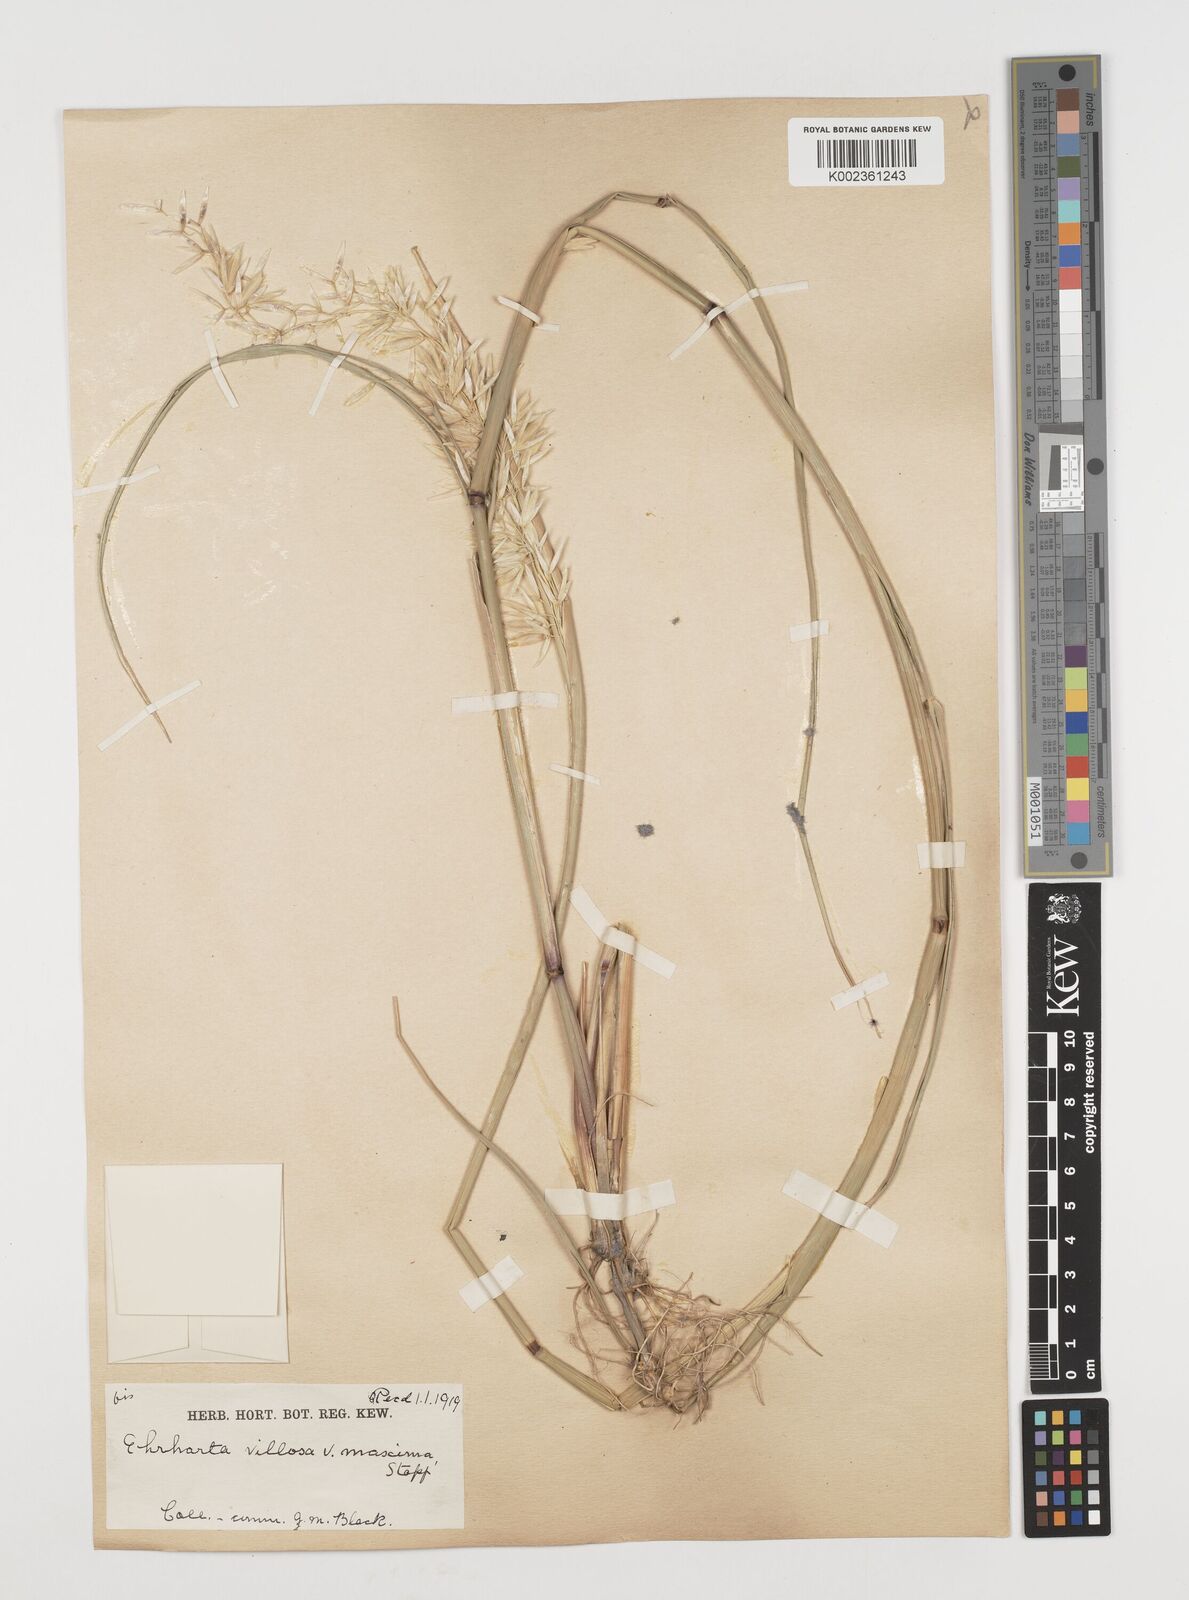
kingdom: Plantae
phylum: Tracheophyta
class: Liliopsida
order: Poales
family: Poaceae
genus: Ehrharta
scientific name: Ehrharta villosa
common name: Pyp grass
